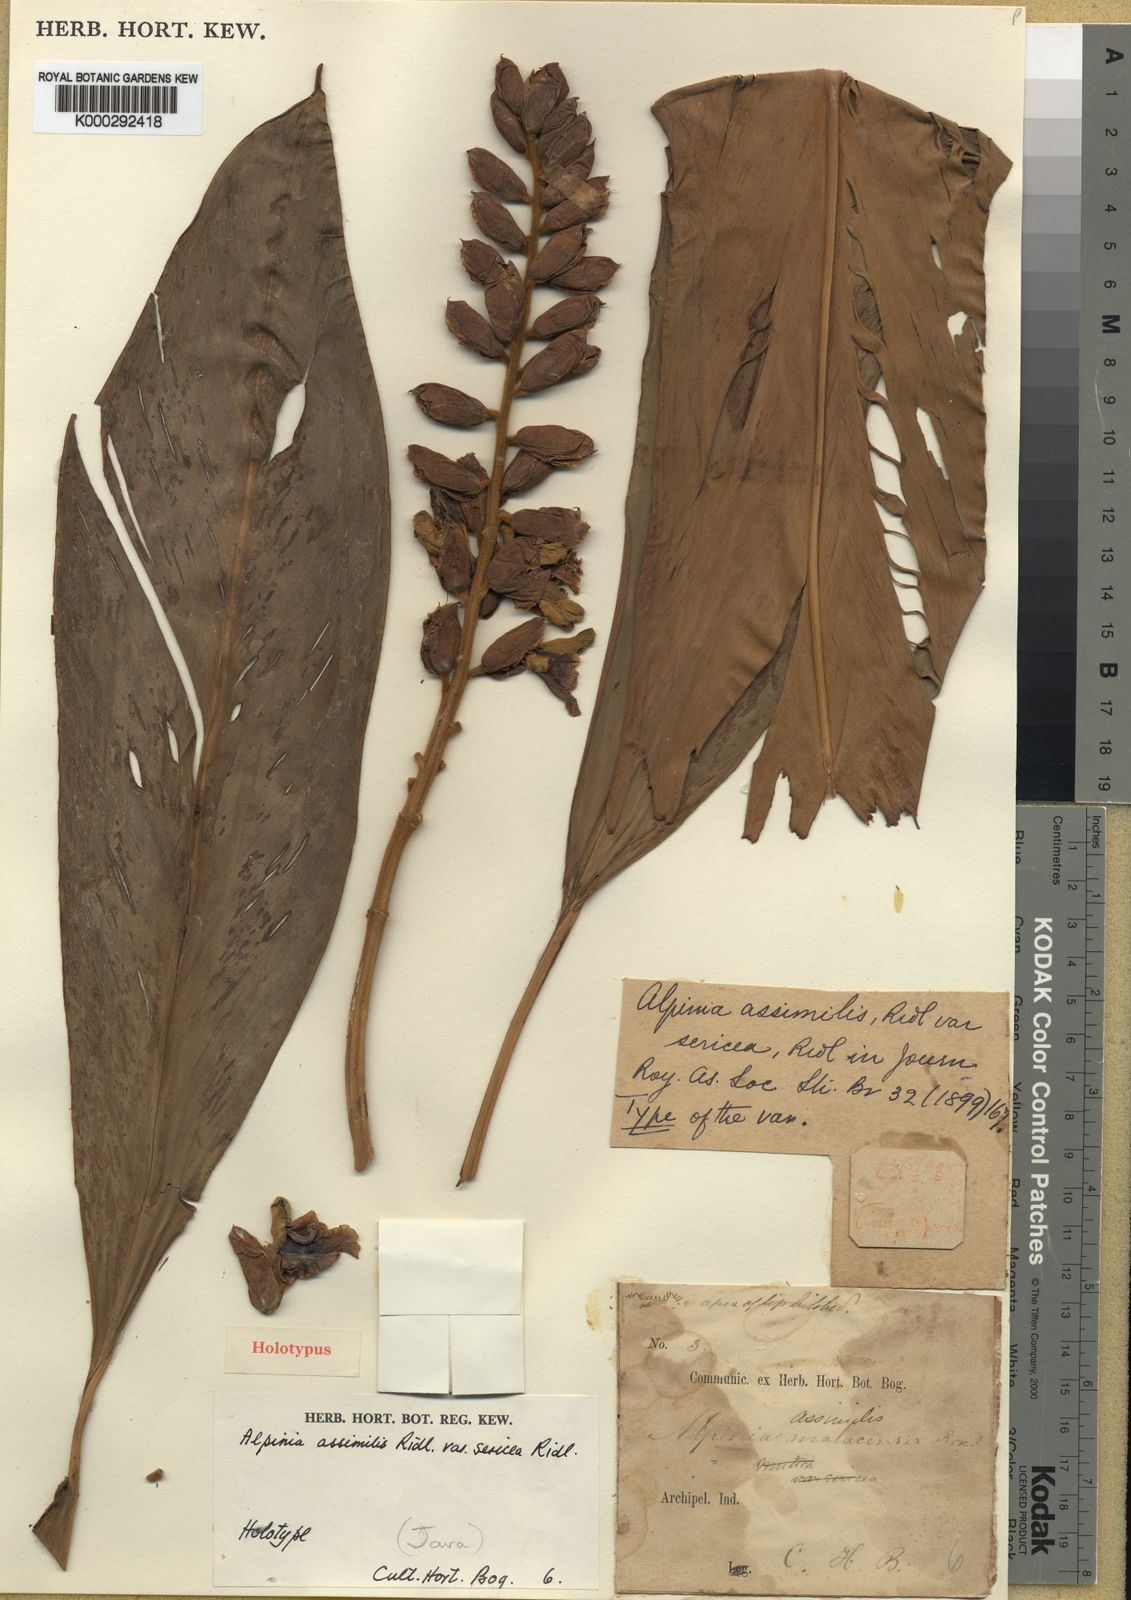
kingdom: Plantae
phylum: Tracheophyta
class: Liliopsida
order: Zingiberales
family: Zingiberaceae
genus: Alpinia
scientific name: Alpinia assimilis
